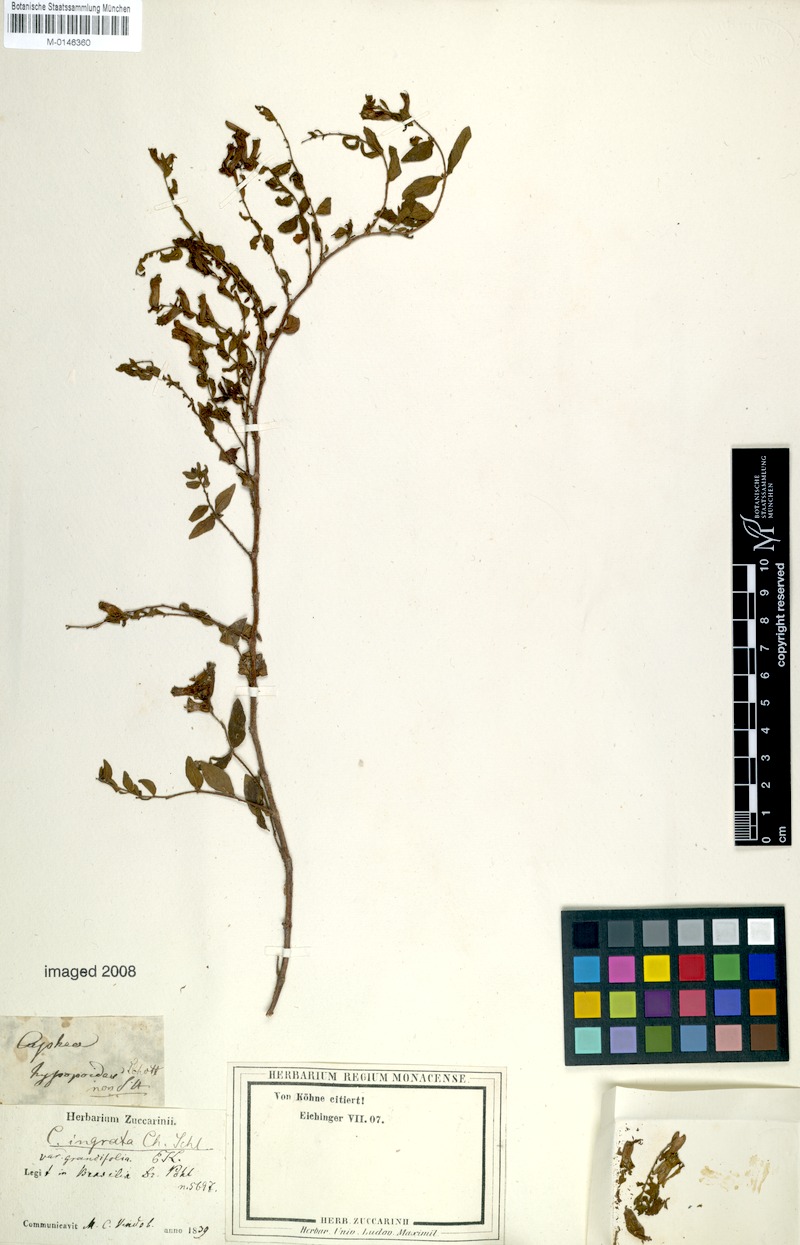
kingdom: Plantae
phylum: Tracheophyta
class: Magnoliopsida
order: Myrtales
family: Lythraceae
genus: Cuphea
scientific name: Cuphea ingrata
